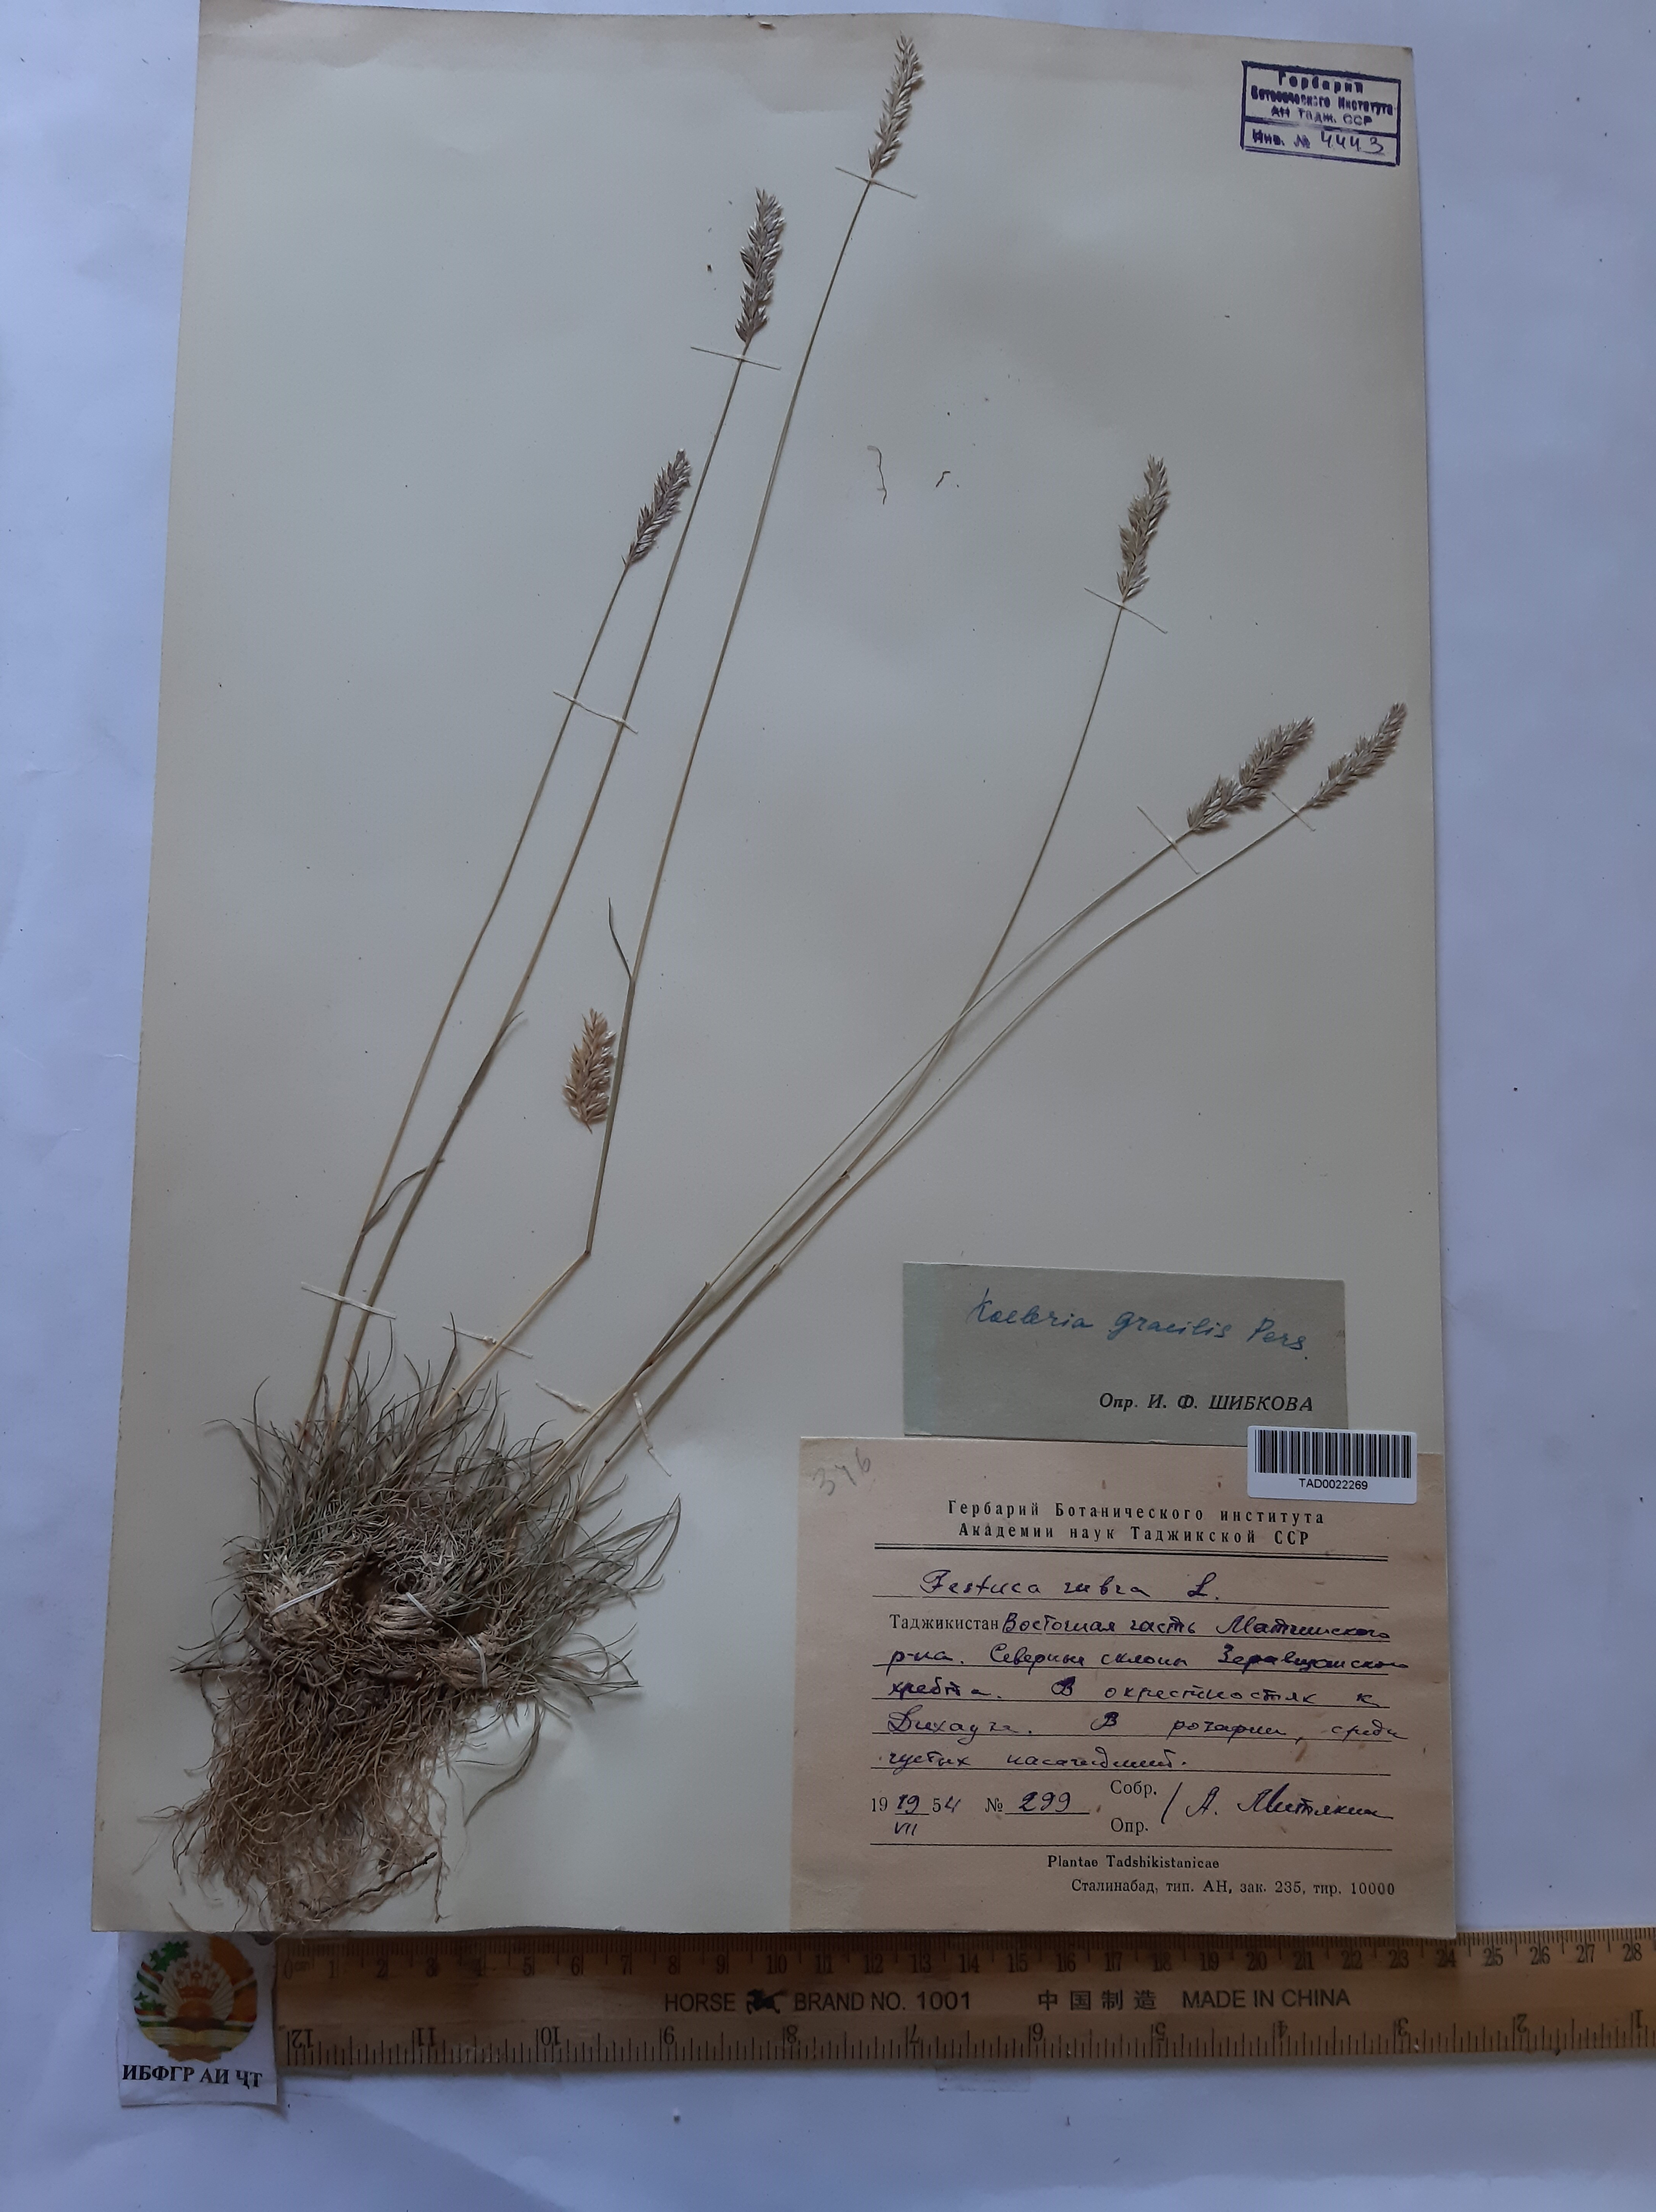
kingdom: Plantae
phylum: Tracheophyta
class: Liliopsida
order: Poales
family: Poaceae
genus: Koeleria
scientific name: Koeleria macrantha
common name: Crested hair-grass
